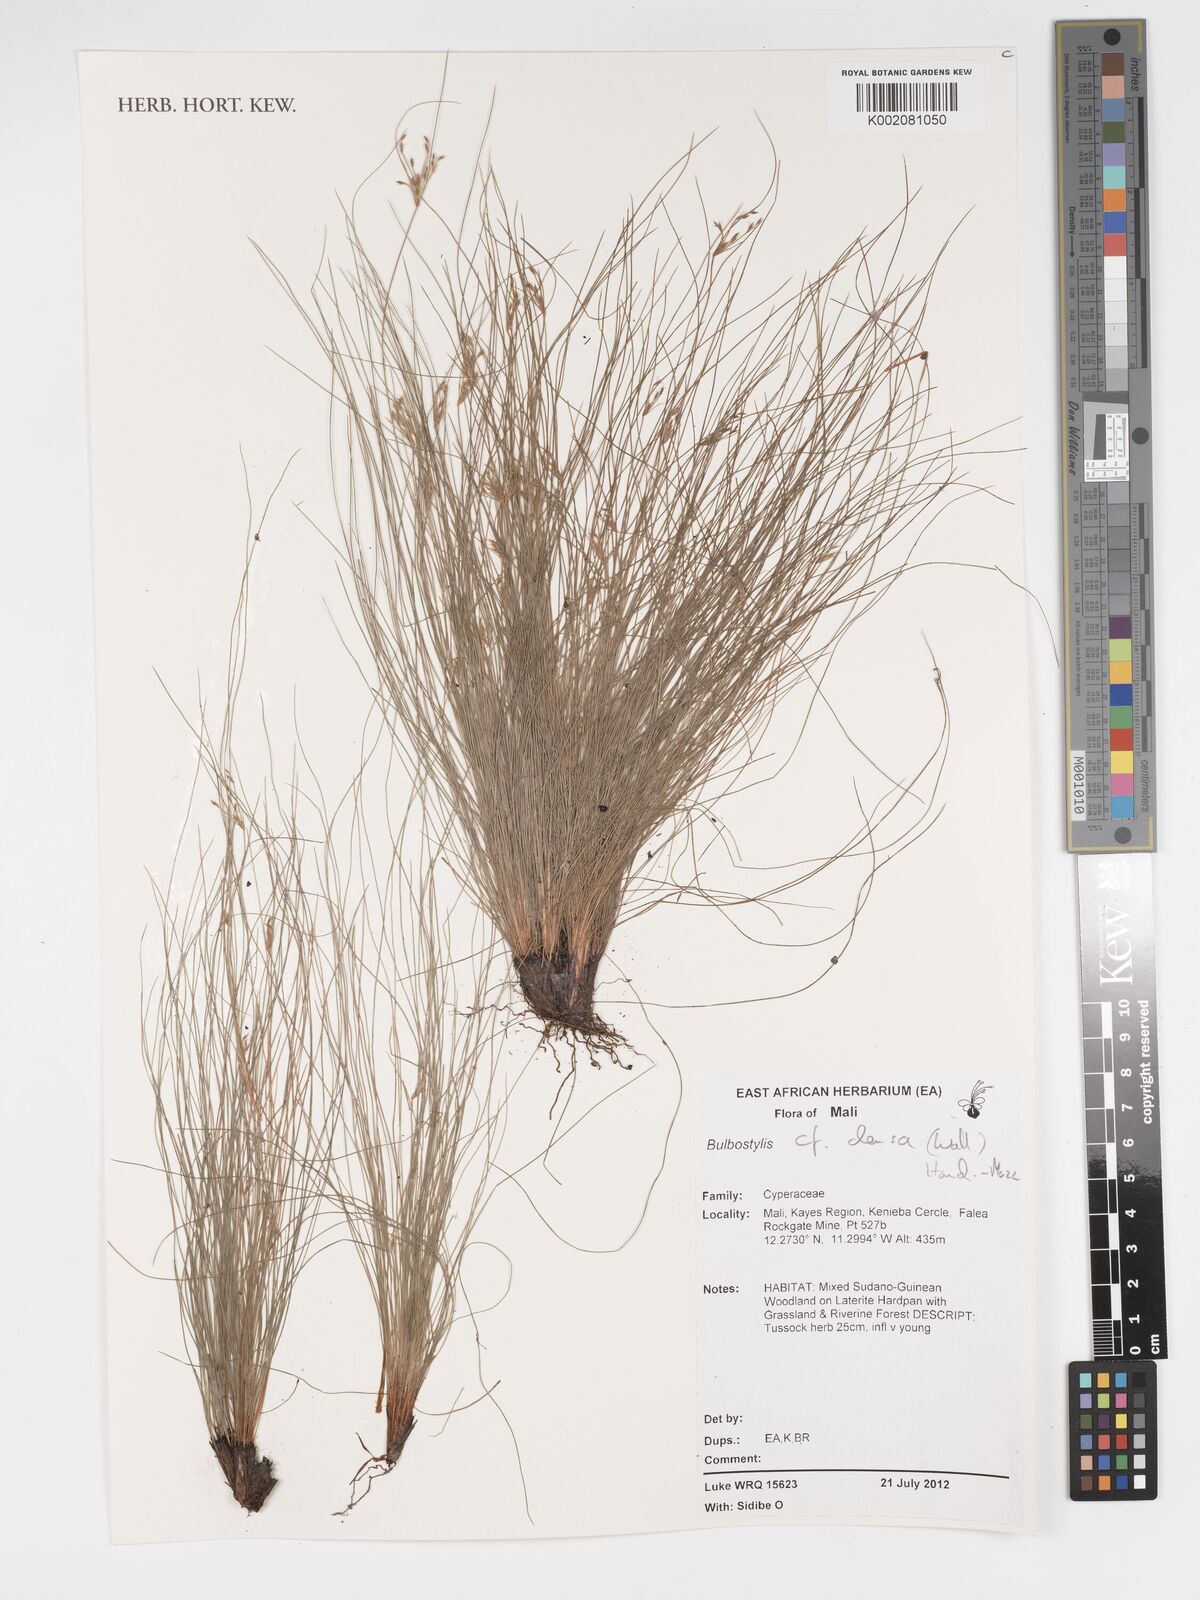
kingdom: Plantae
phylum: Tracheophyta
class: Liliopsida
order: Poales
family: Cyperaceae
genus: Bulbostylis
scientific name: Bulbostylis densa
